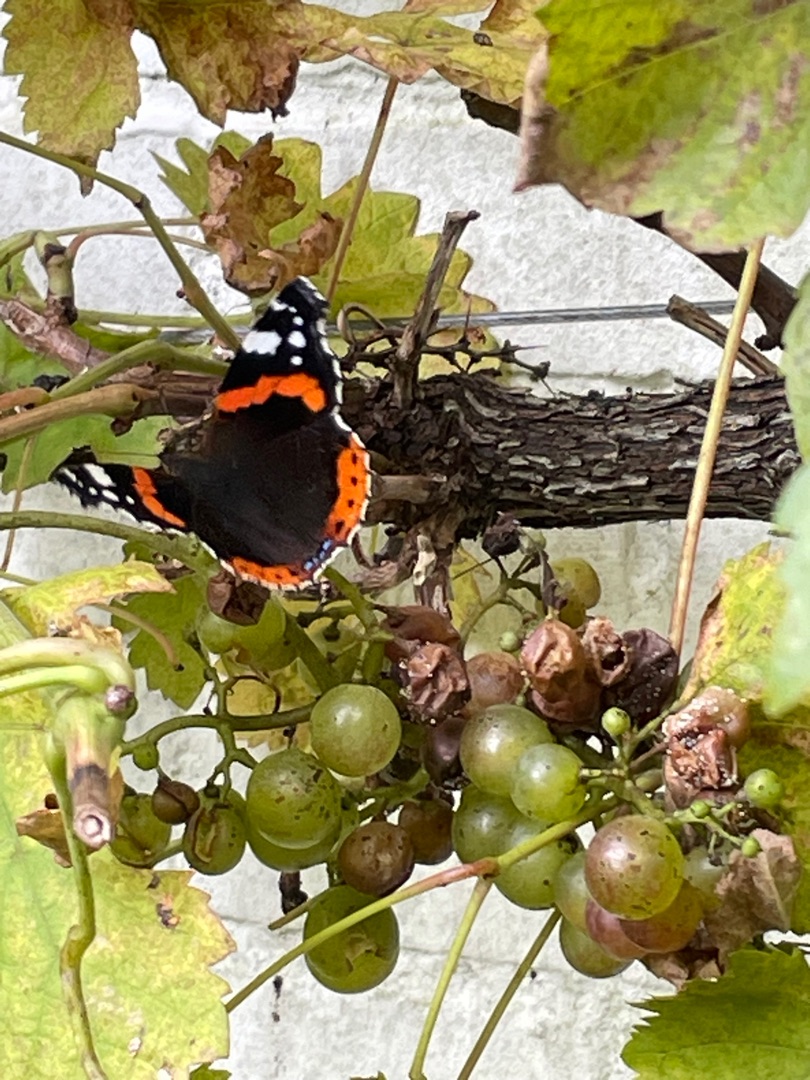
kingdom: Animalia
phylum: Arthropoda
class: Insecta
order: Lepidoptera
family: Nymphalidae
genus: Vanessa
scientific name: Vanessa atalanta
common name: Admiral
